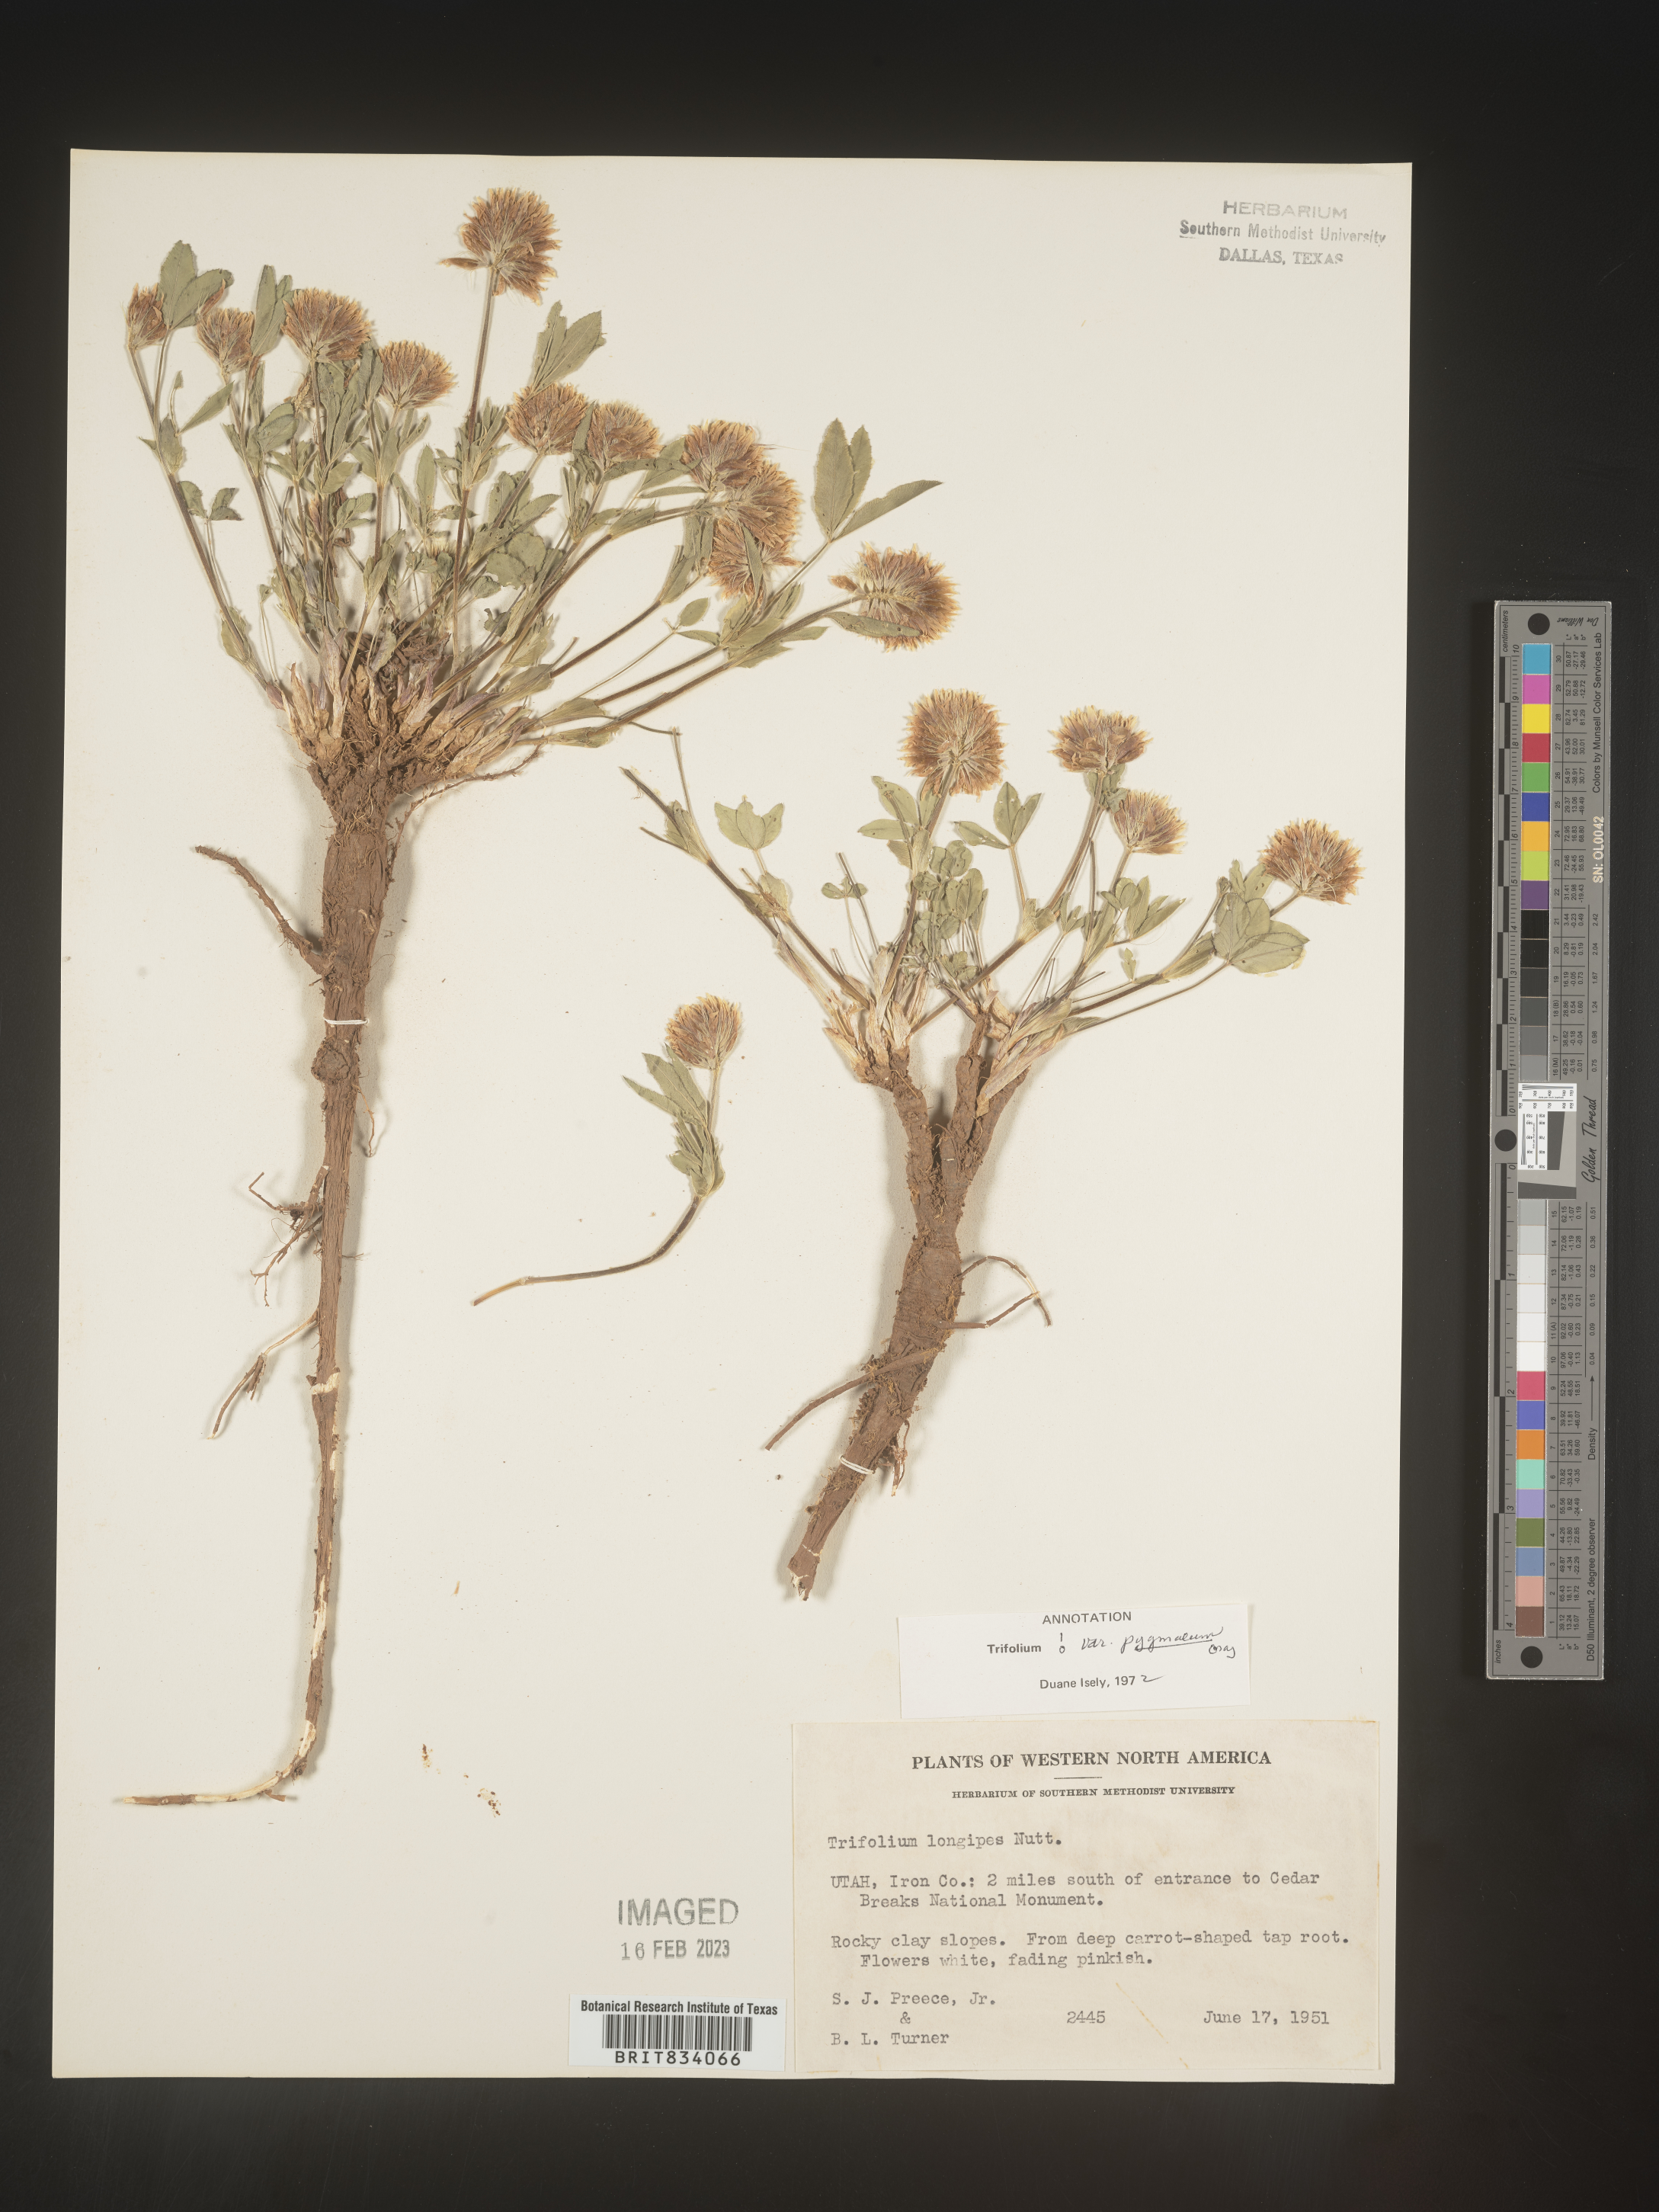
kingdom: Plantae
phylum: Tracheophyta
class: Magnoliopsida
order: Fabales
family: Fabaceae
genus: Trifolium
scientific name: Trifolium
